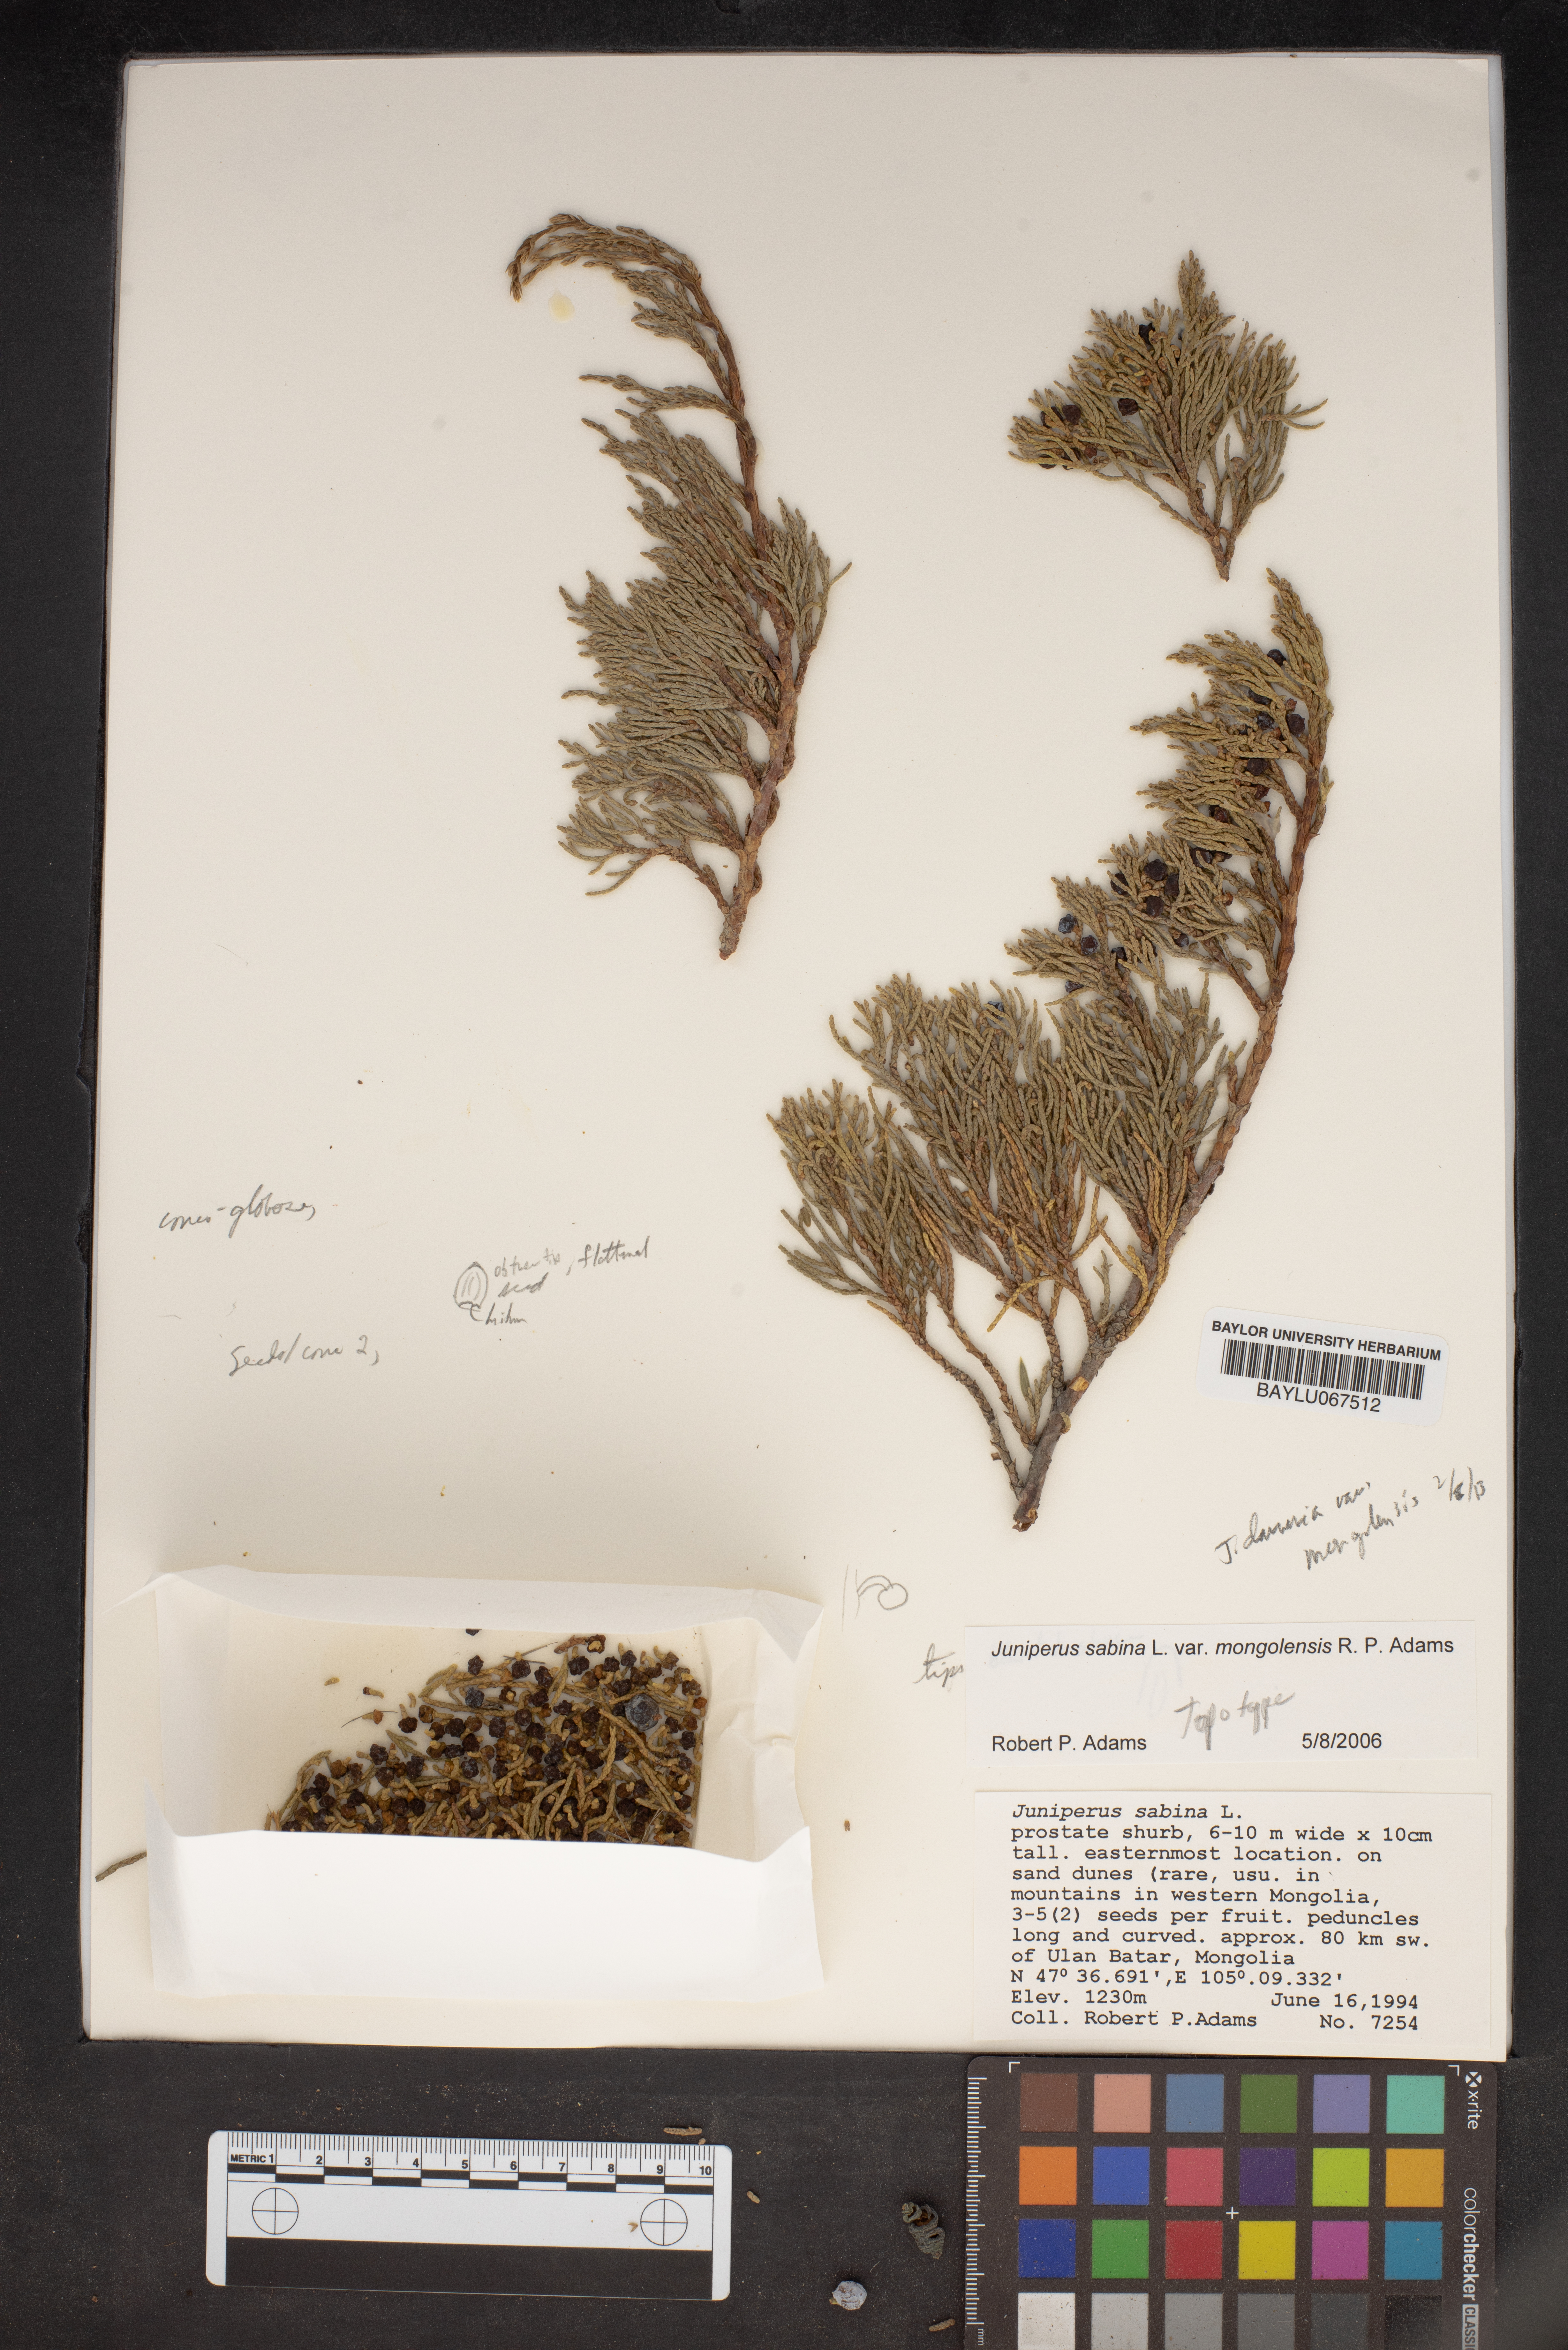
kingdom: Plantae
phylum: Tracheophyta
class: Pinopsida
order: Pinales
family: Cupressaceae
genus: Juniperus
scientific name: Juniperus sabina
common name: Savin
